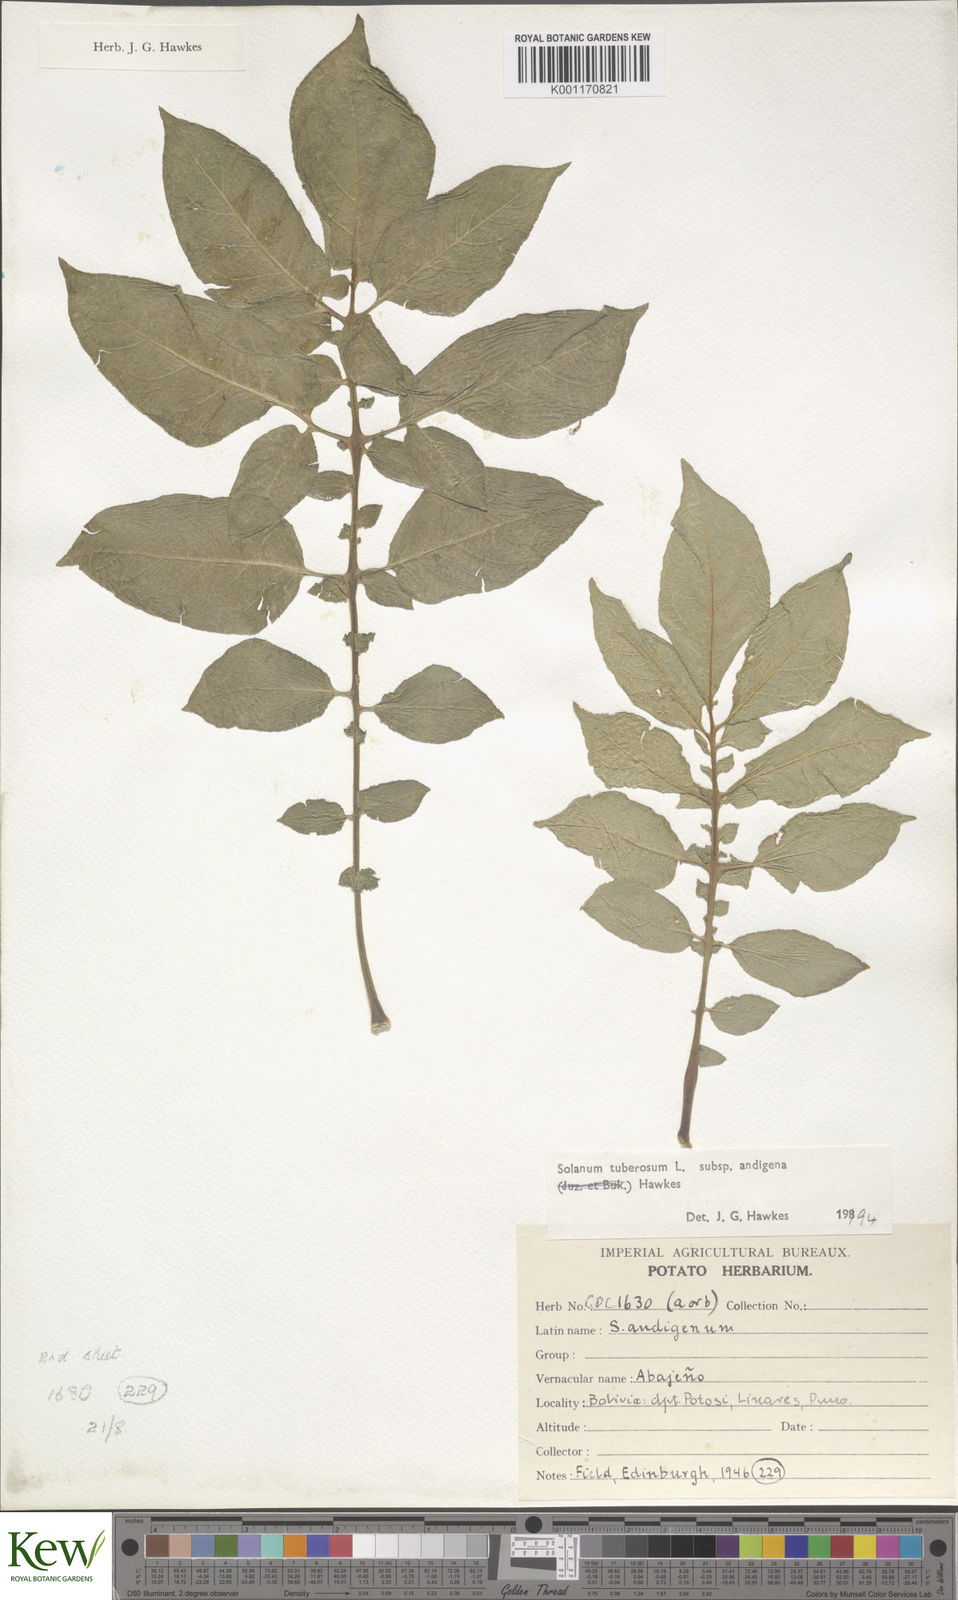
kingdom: Plantae
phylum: Tracheophyta
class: Magnoliopsida
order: Solanales
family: Solanaceae
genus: Solanum
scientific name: Solanum tuberosum
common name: Potato
